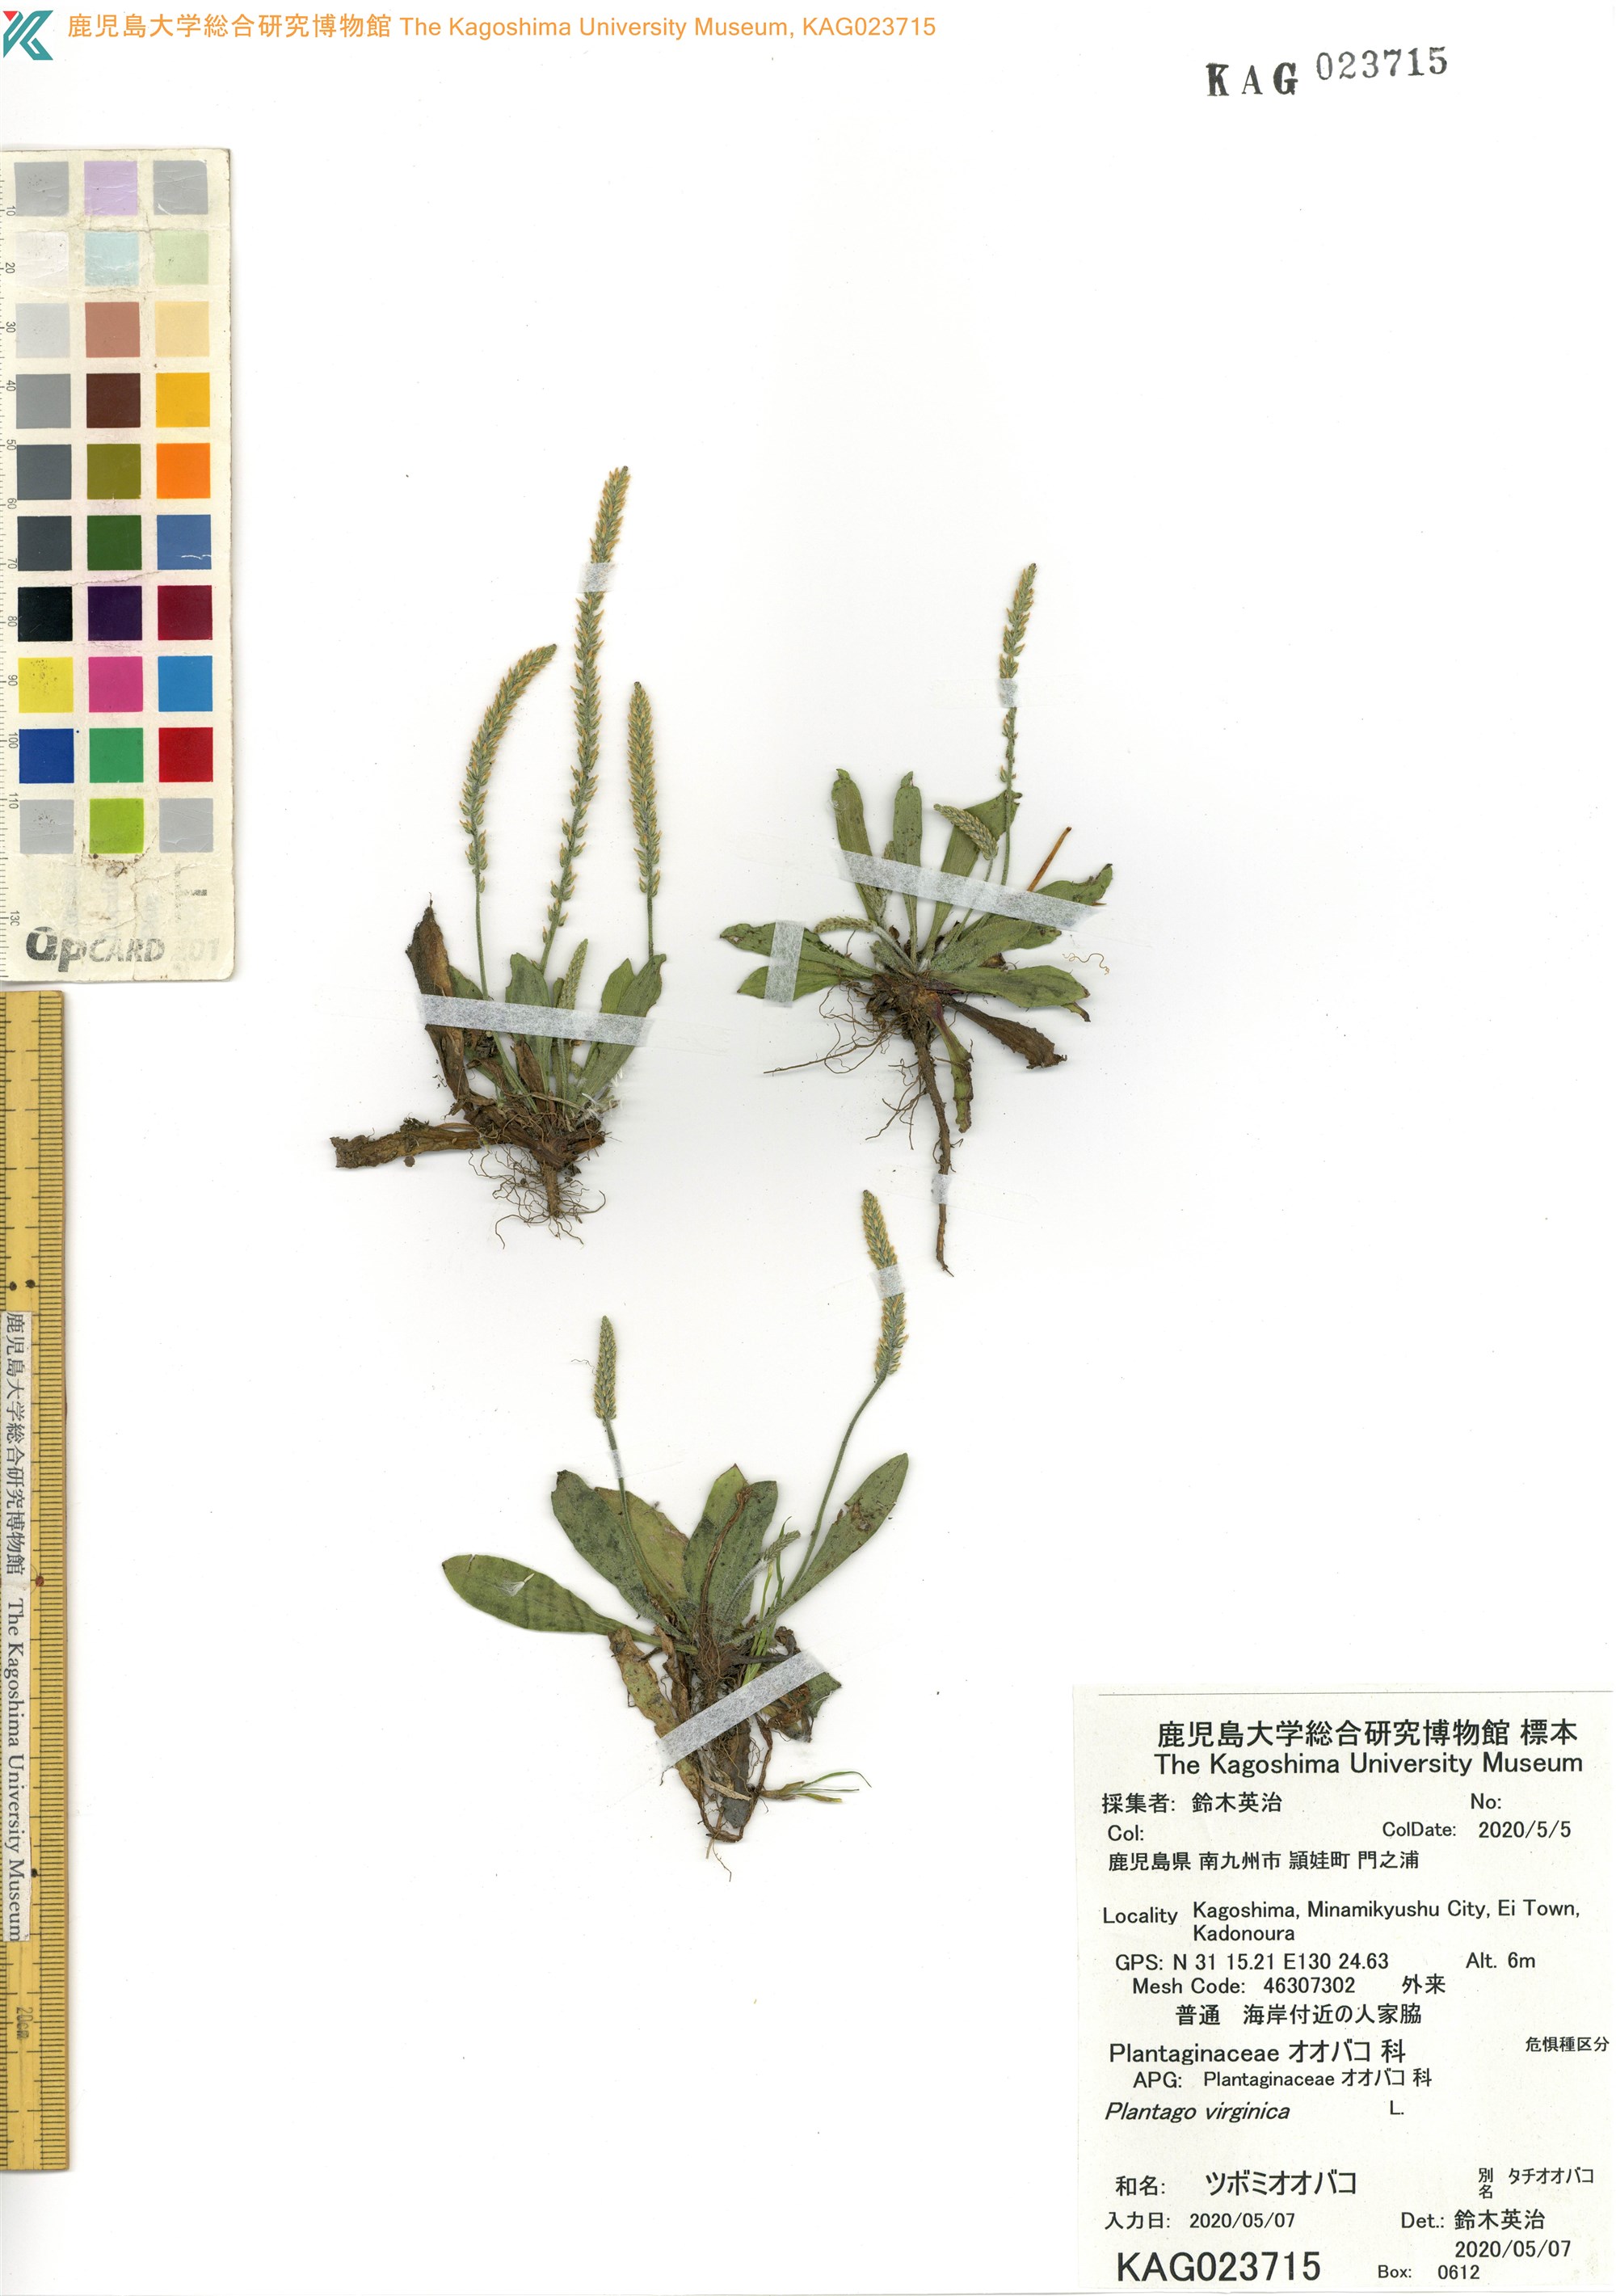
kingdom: Plantae
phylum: Tracheophyta
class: Magnoliopsida
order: Lamiales
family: Plantaginaceae
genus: Plantago
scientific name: Plantago virginica
